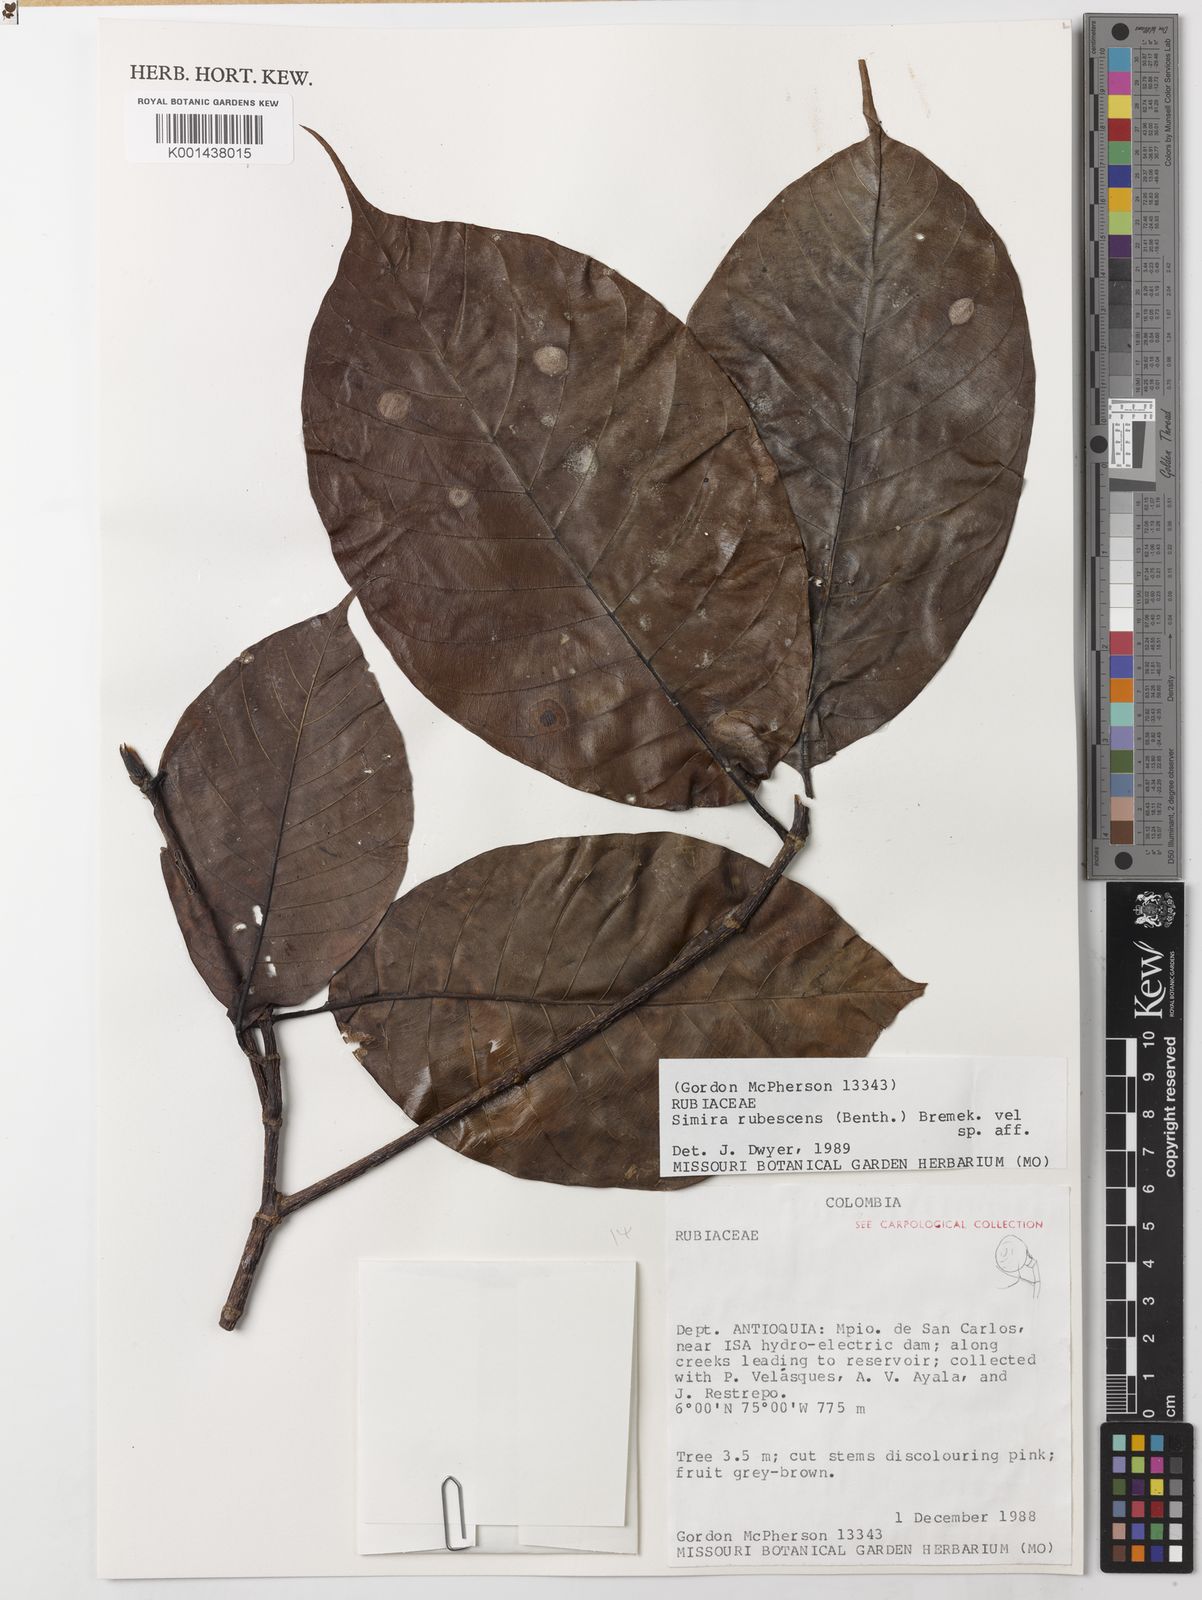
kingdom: Plantae
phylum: Tracheophyta
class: Magnoliopsida
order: Gentianales
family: Rubiaceae
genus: Simira
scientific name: Simira rubescens
